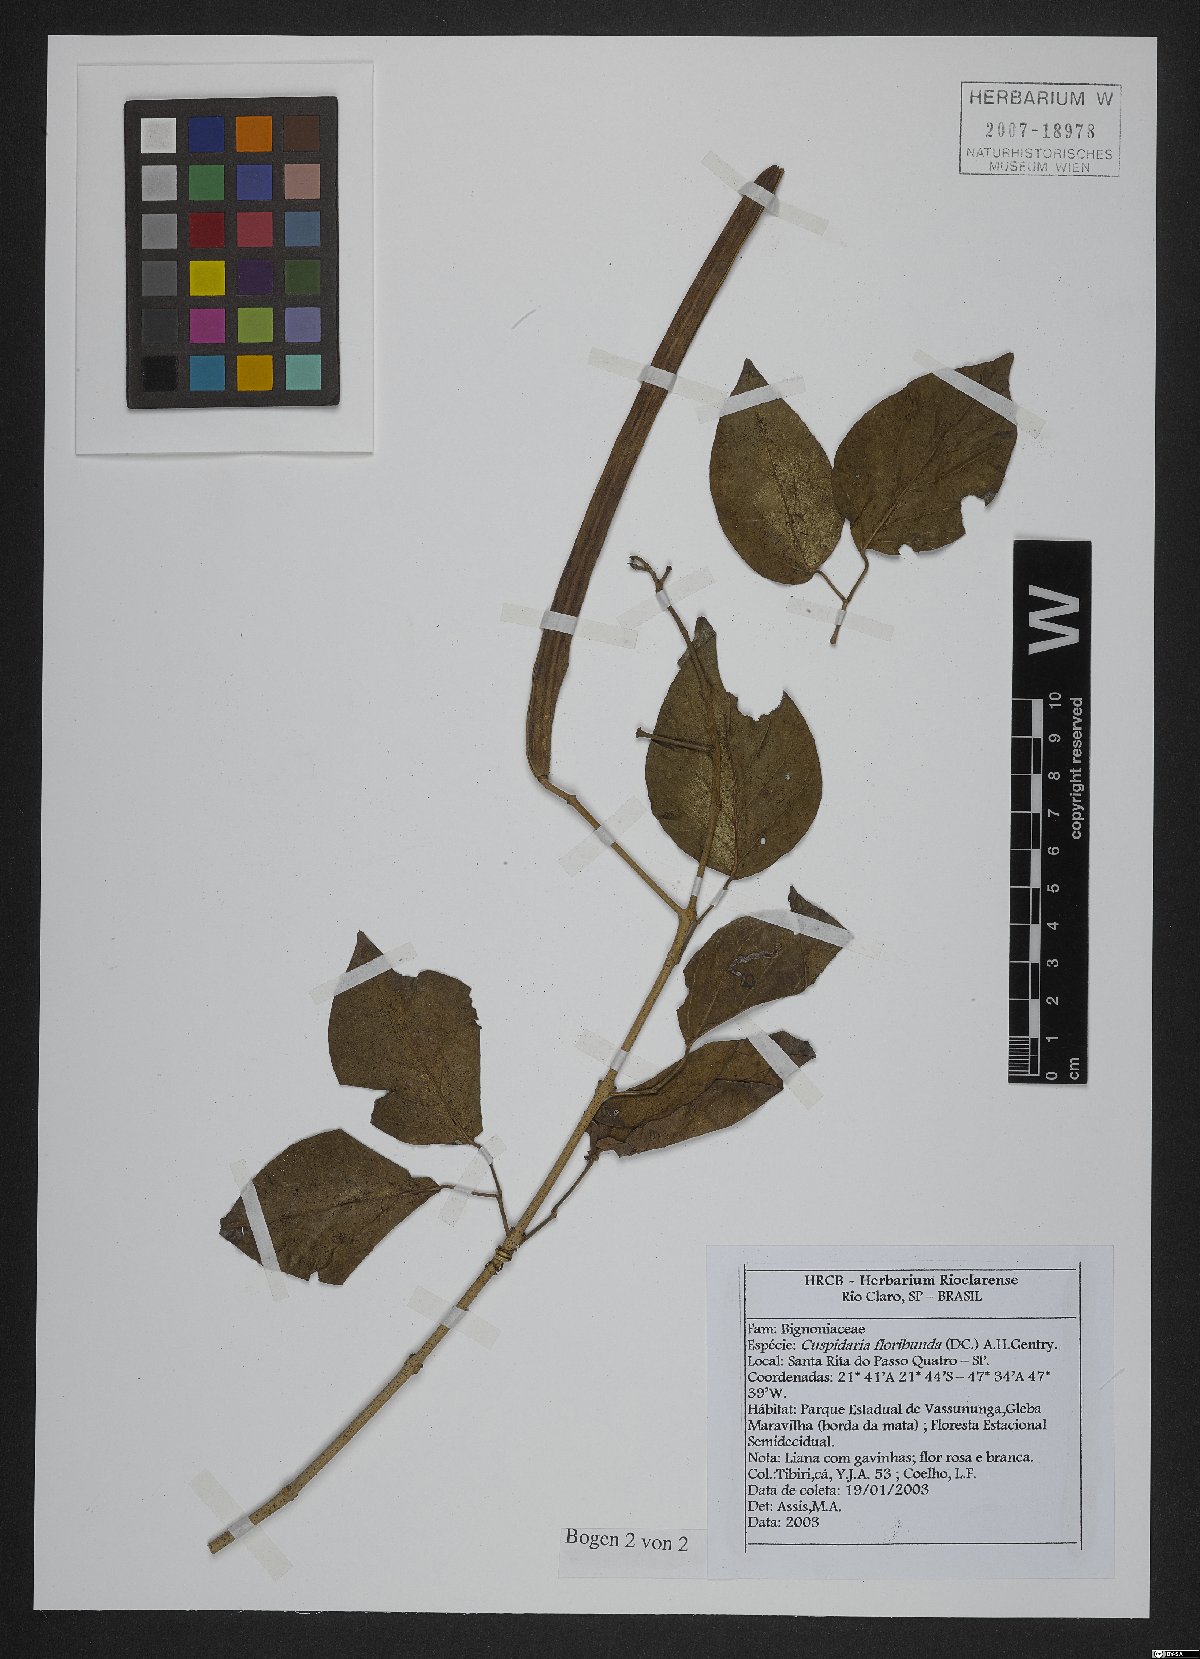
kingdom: Plantae
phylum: Tracheophyta
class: Magnoliopsida
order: Lamiales
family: Bignoniaceae
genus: Cuspidaria
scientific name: Cuspidaria floribunda
